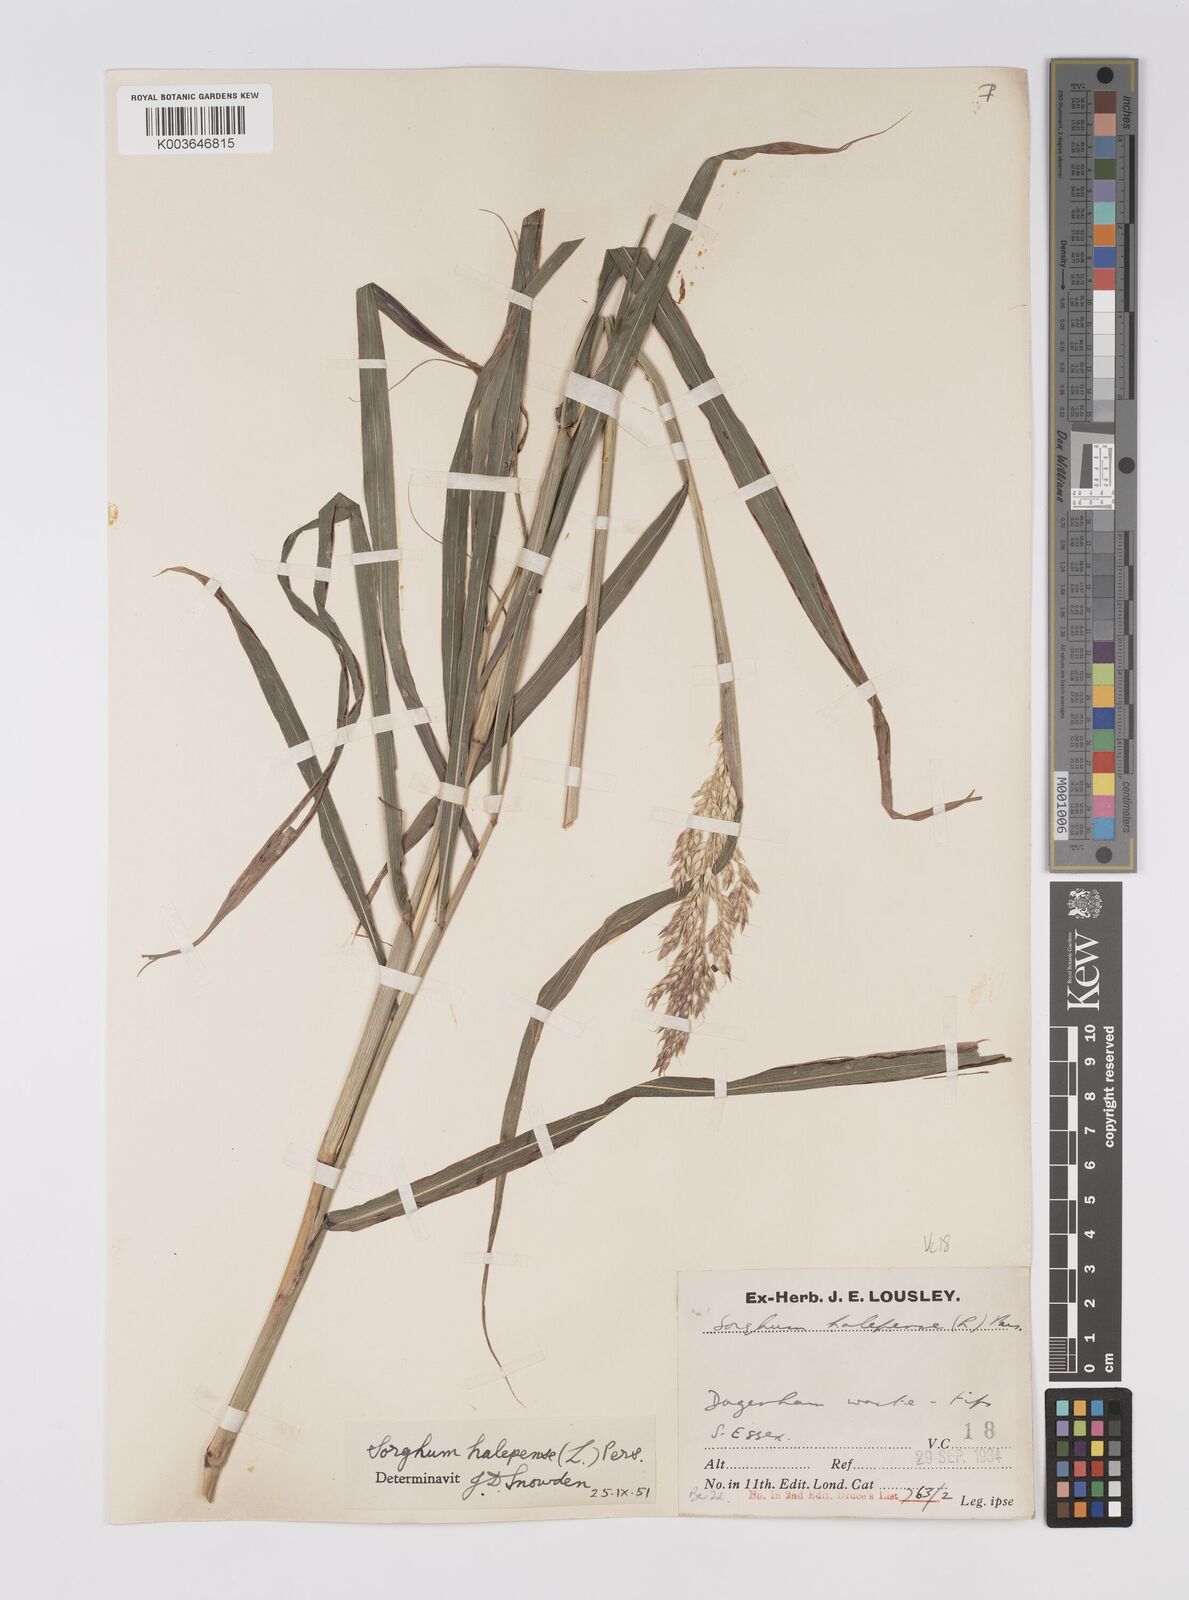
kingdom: Plantae
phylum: Tracheophyta
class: Liliopsida
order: Poales
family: Poaceae
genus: Sorghum
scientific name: Sorghum halepense
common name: Johnson-grass
